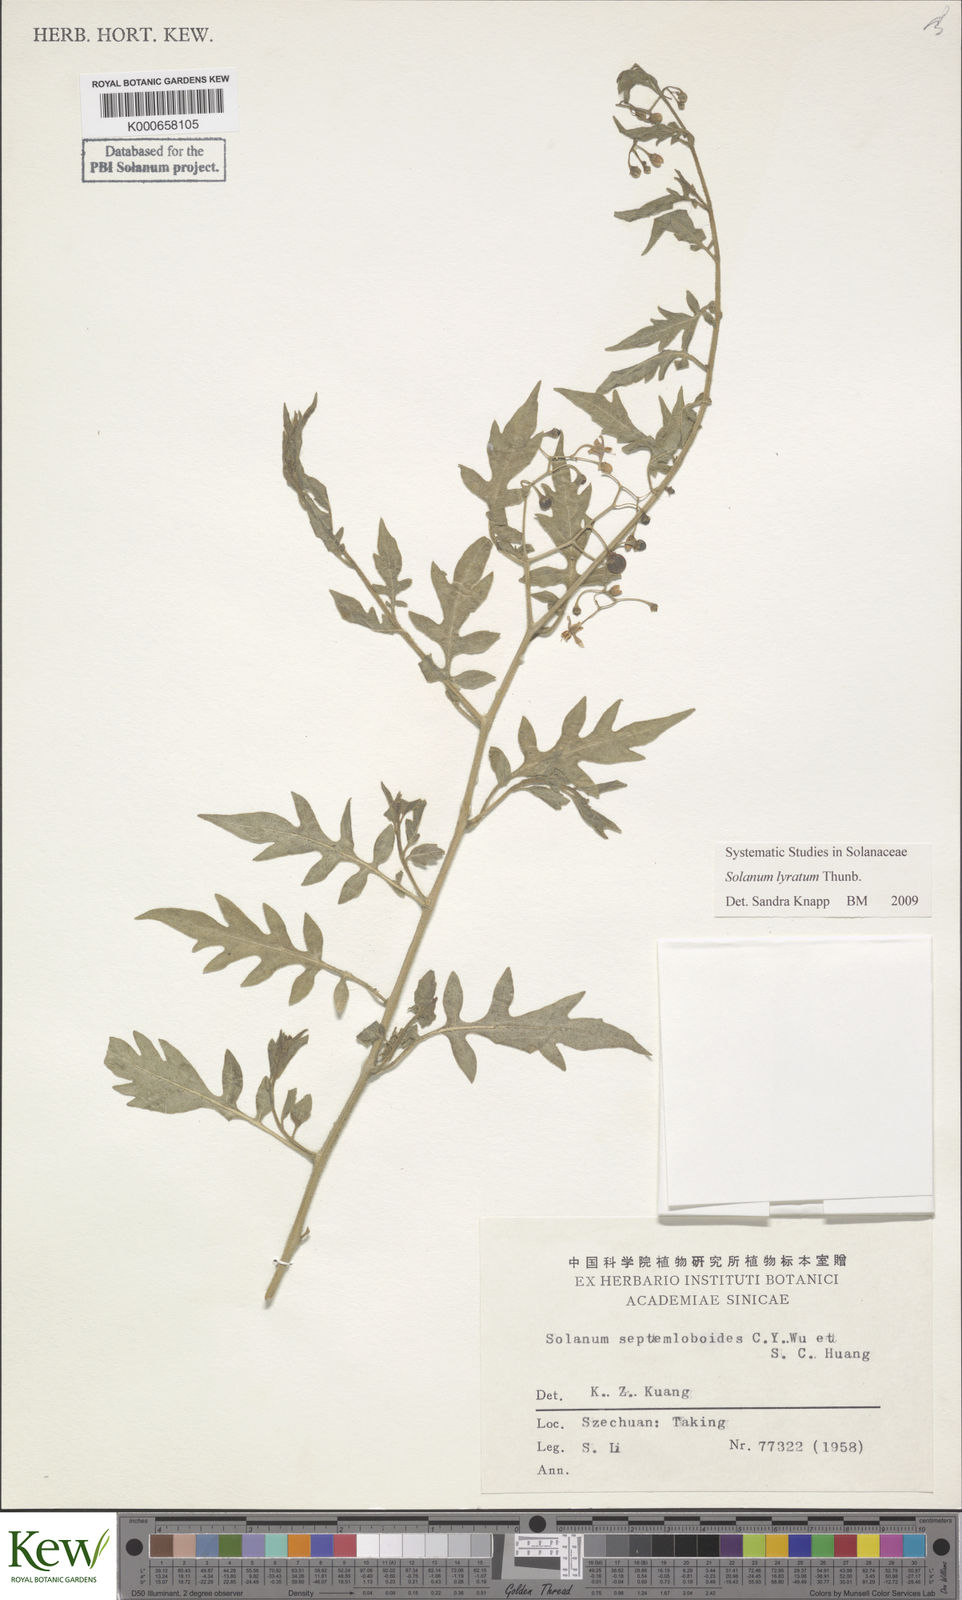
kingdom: Plantae
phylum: Tracheophyta
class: Magnoliopsida
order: Solanales
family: Solanaceae
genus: Solanum
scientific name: Solanum lyratum
